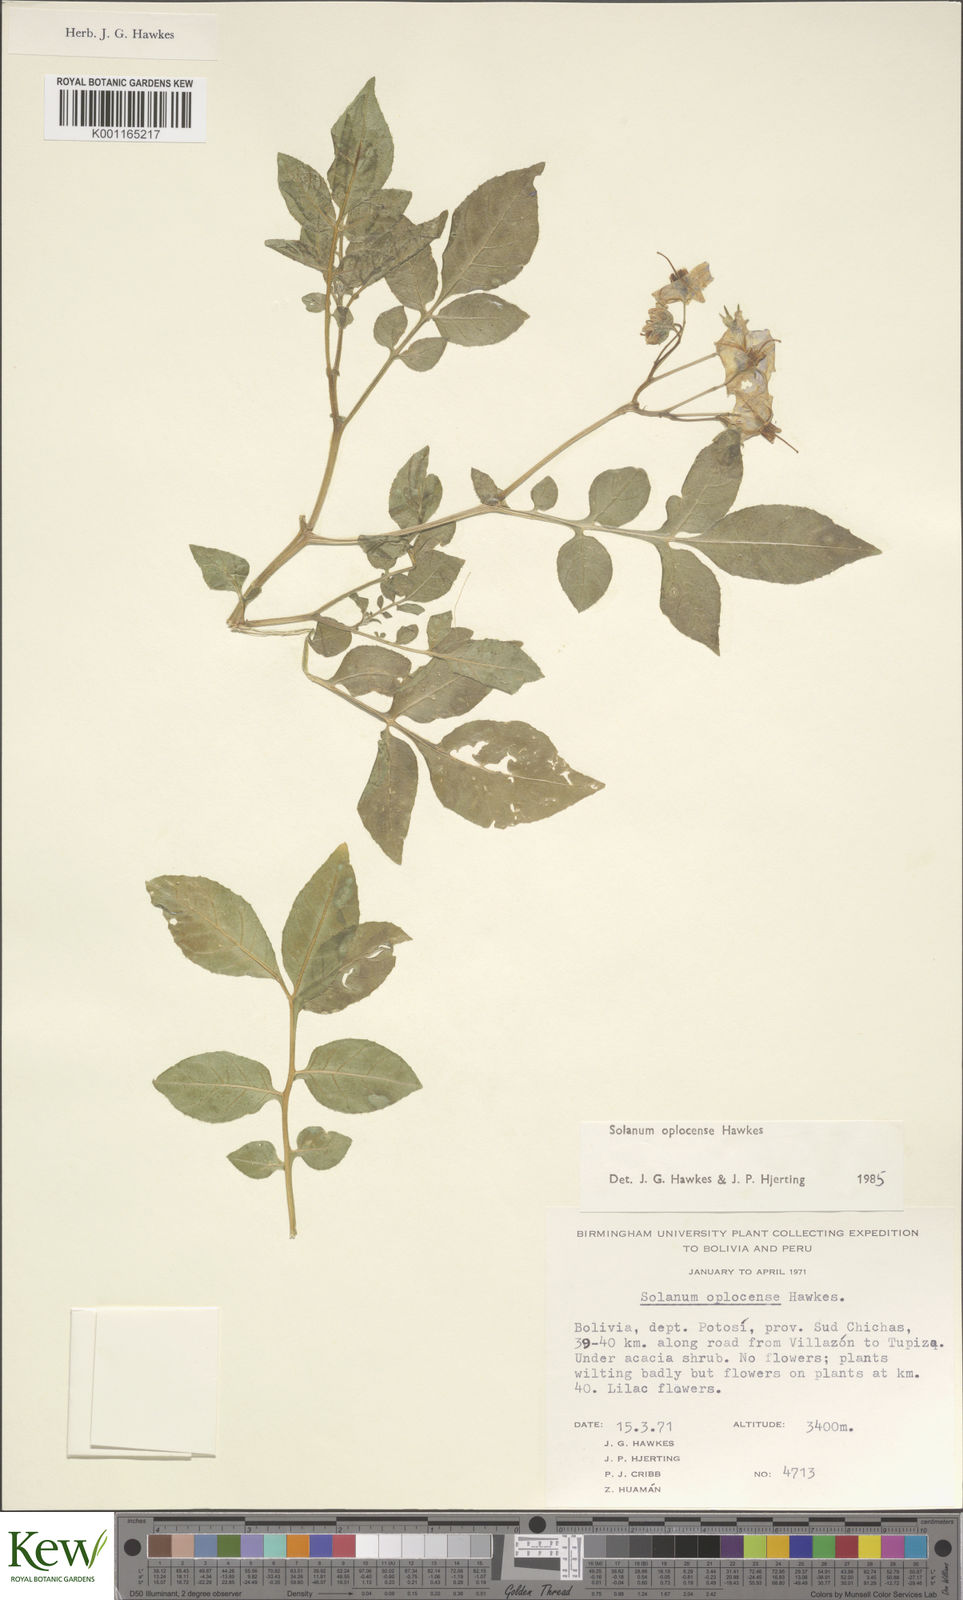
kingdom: Plantae
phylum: Tracheophyta
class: Magnoliopsida
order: Solanales
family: Solanaceae
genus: Solanum
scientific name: Solanum brevicaule
